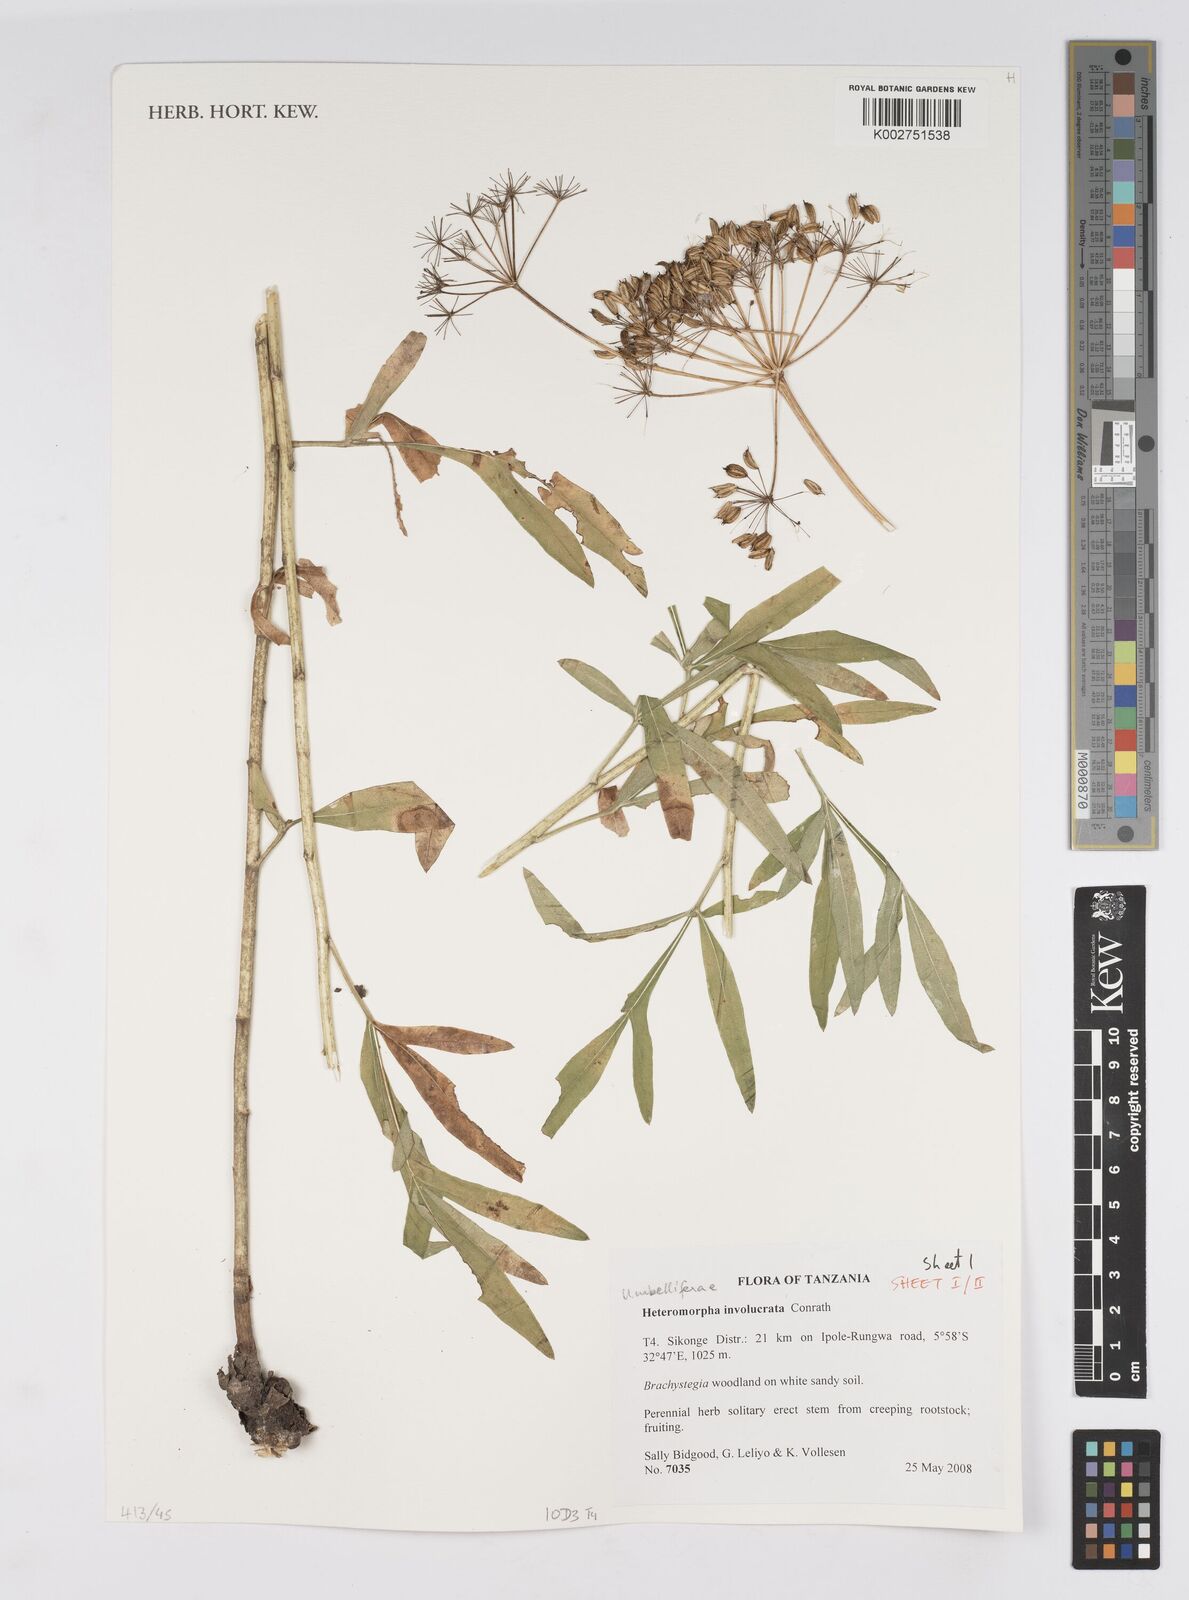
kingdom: Plantae
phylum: Tracheophyta
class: Magnoliopsida
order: Apiales
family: Apiaceae
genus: Heteromorpha
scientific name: Heteromorpha involucrata
